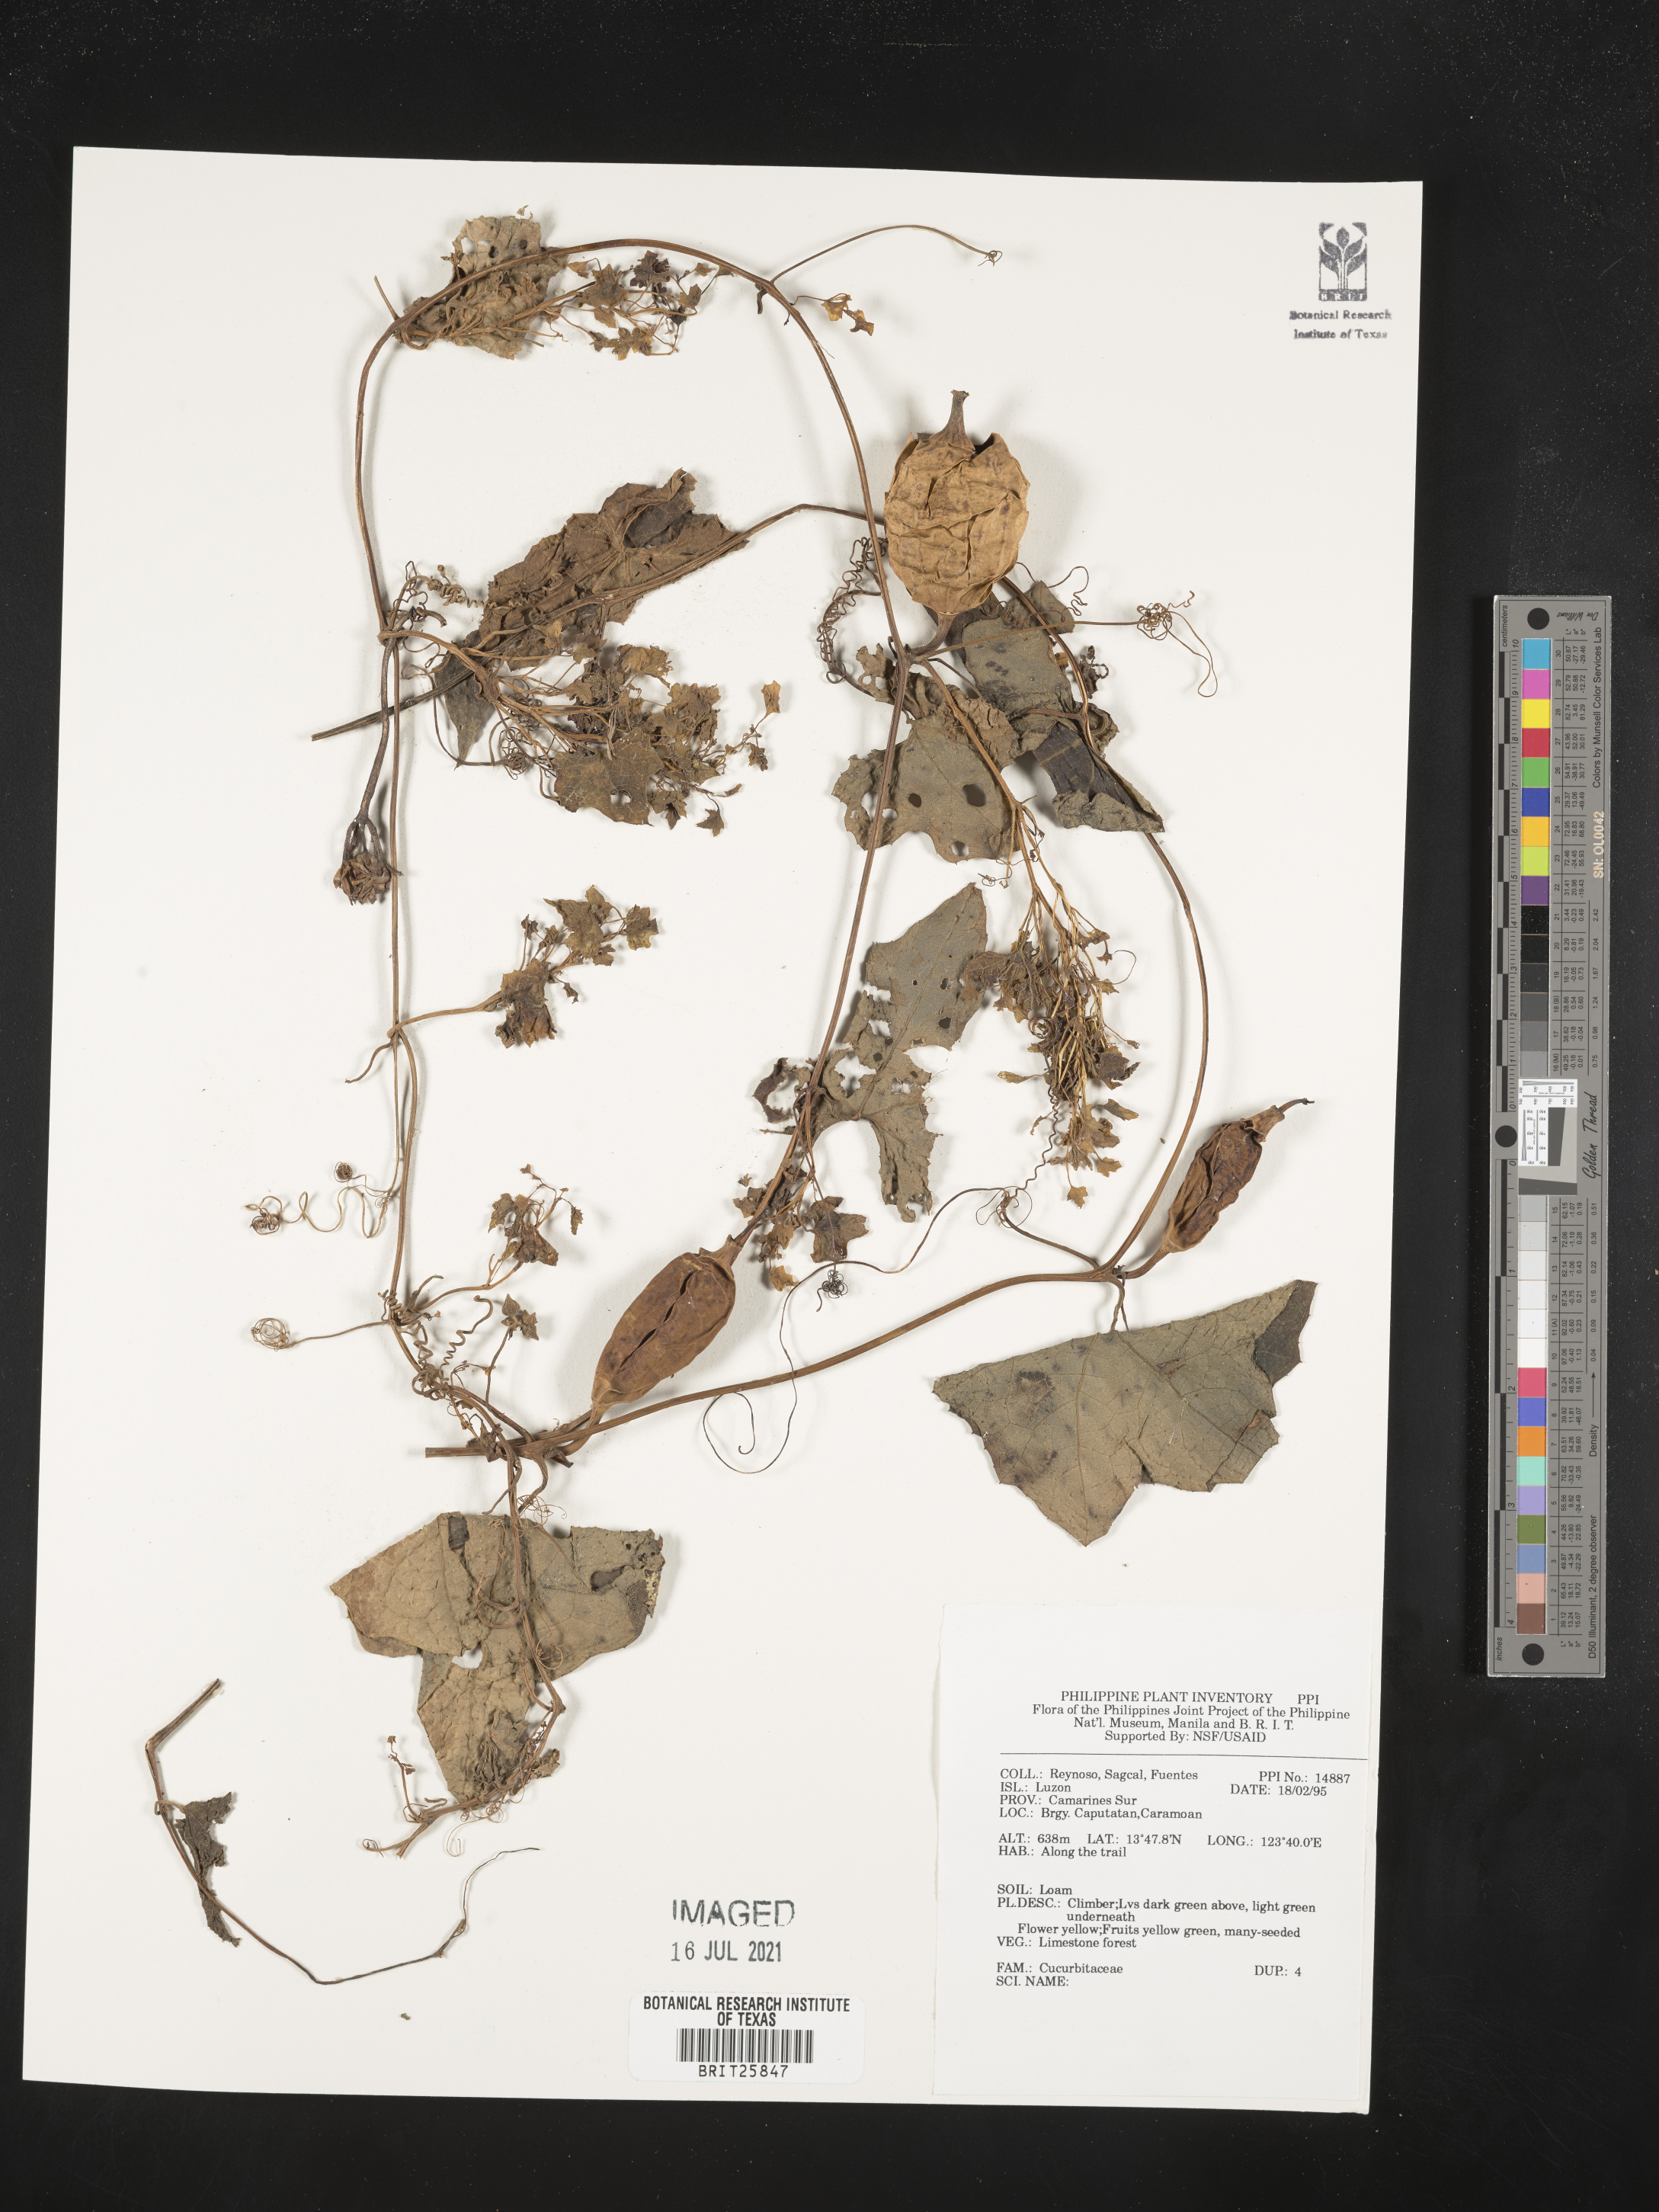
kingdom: Plantae
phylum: Tracheophyta
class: Magnoliopsida
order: Cucurbitales
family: Cucurbitaceae
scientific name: Cucurbitaceae
